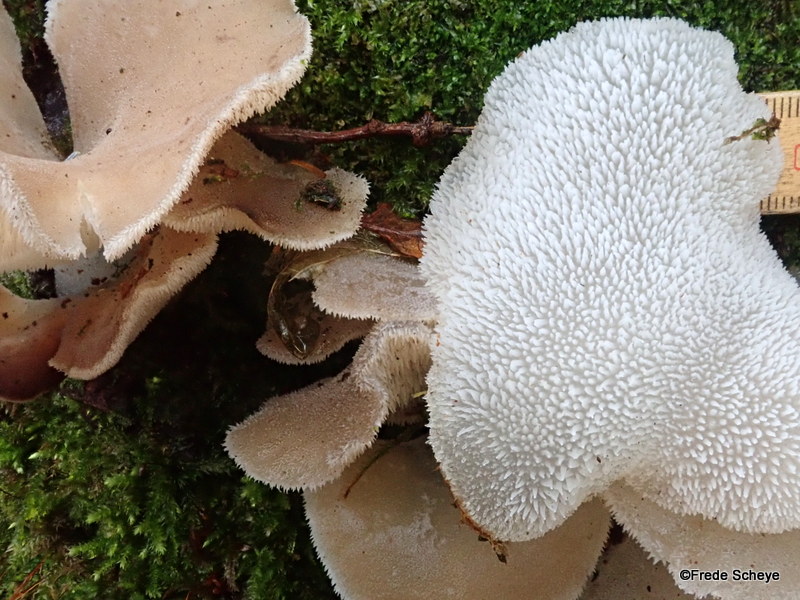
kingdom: Fungi
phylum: Basidiomycota
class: Agaricomycetes
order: Auriculariales
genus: Pseudohydnum
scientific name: Pseudohydnum gelatinosum
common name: bævretand
